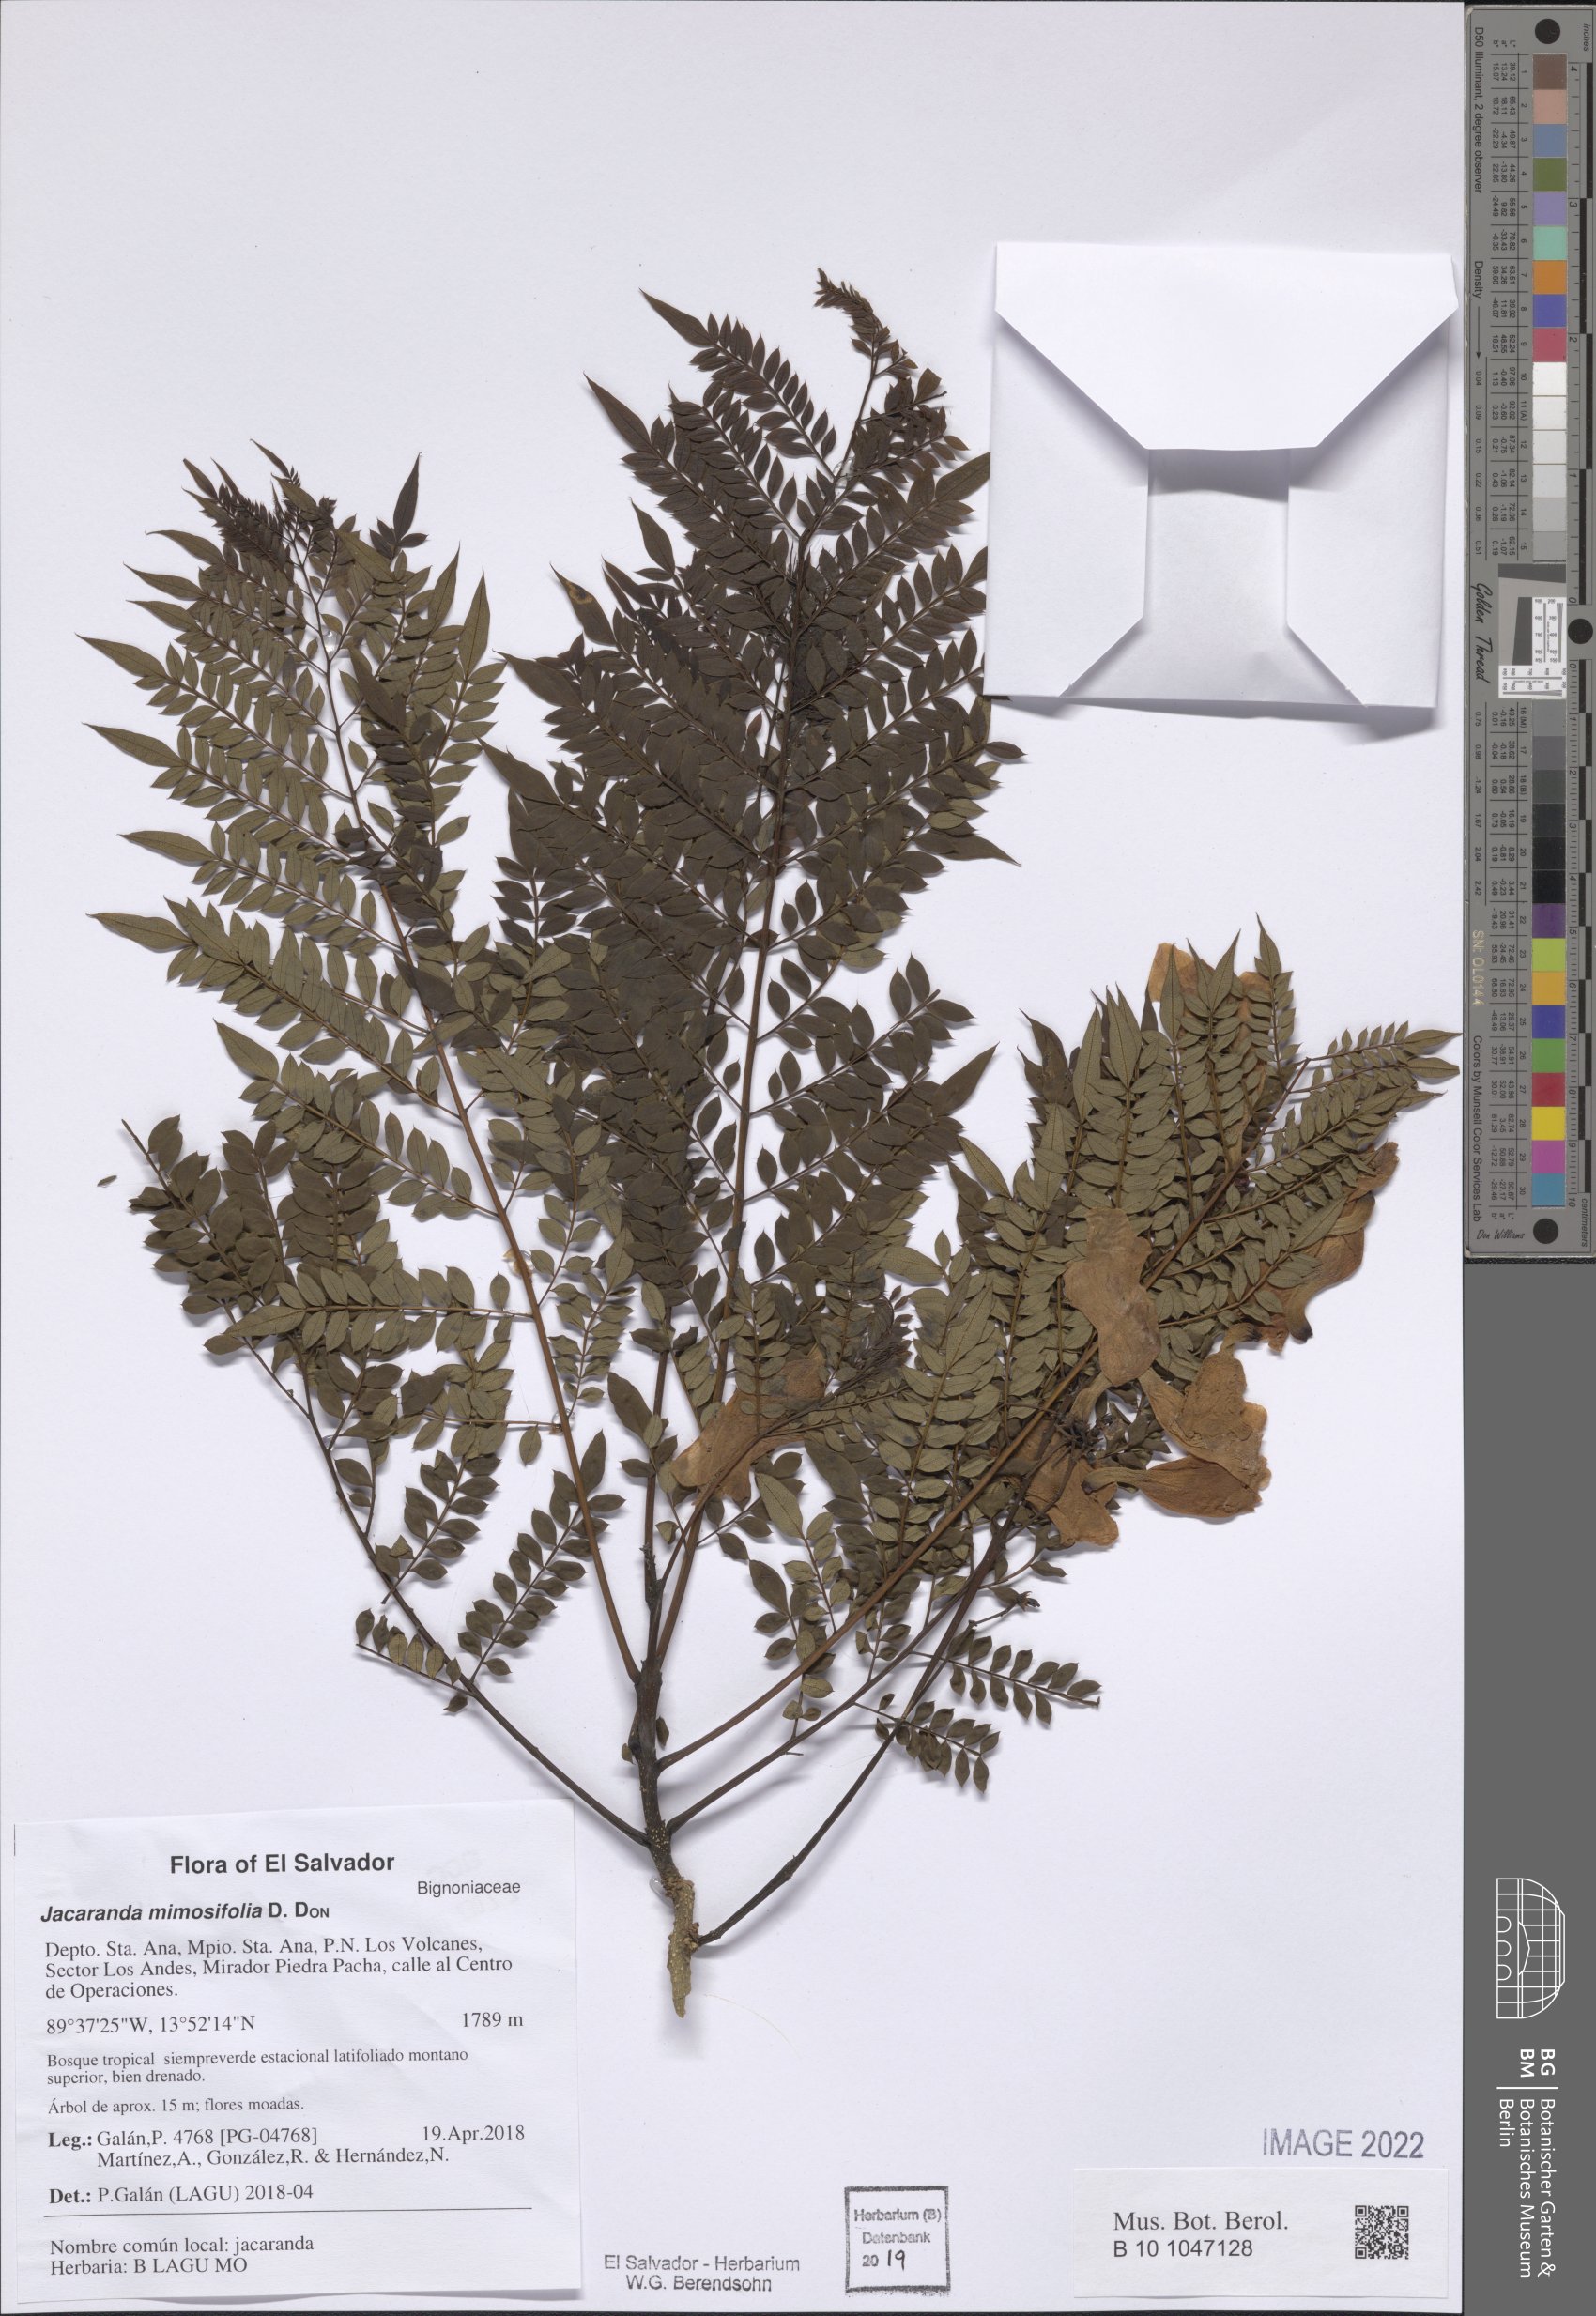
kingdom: Plantae
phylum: Tracheophyta
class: Magnoliopsida
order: Lamiales
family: Bignoniaceae
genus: Jacaranda
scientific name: Jacaranda mimosifolia
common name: Black poui
